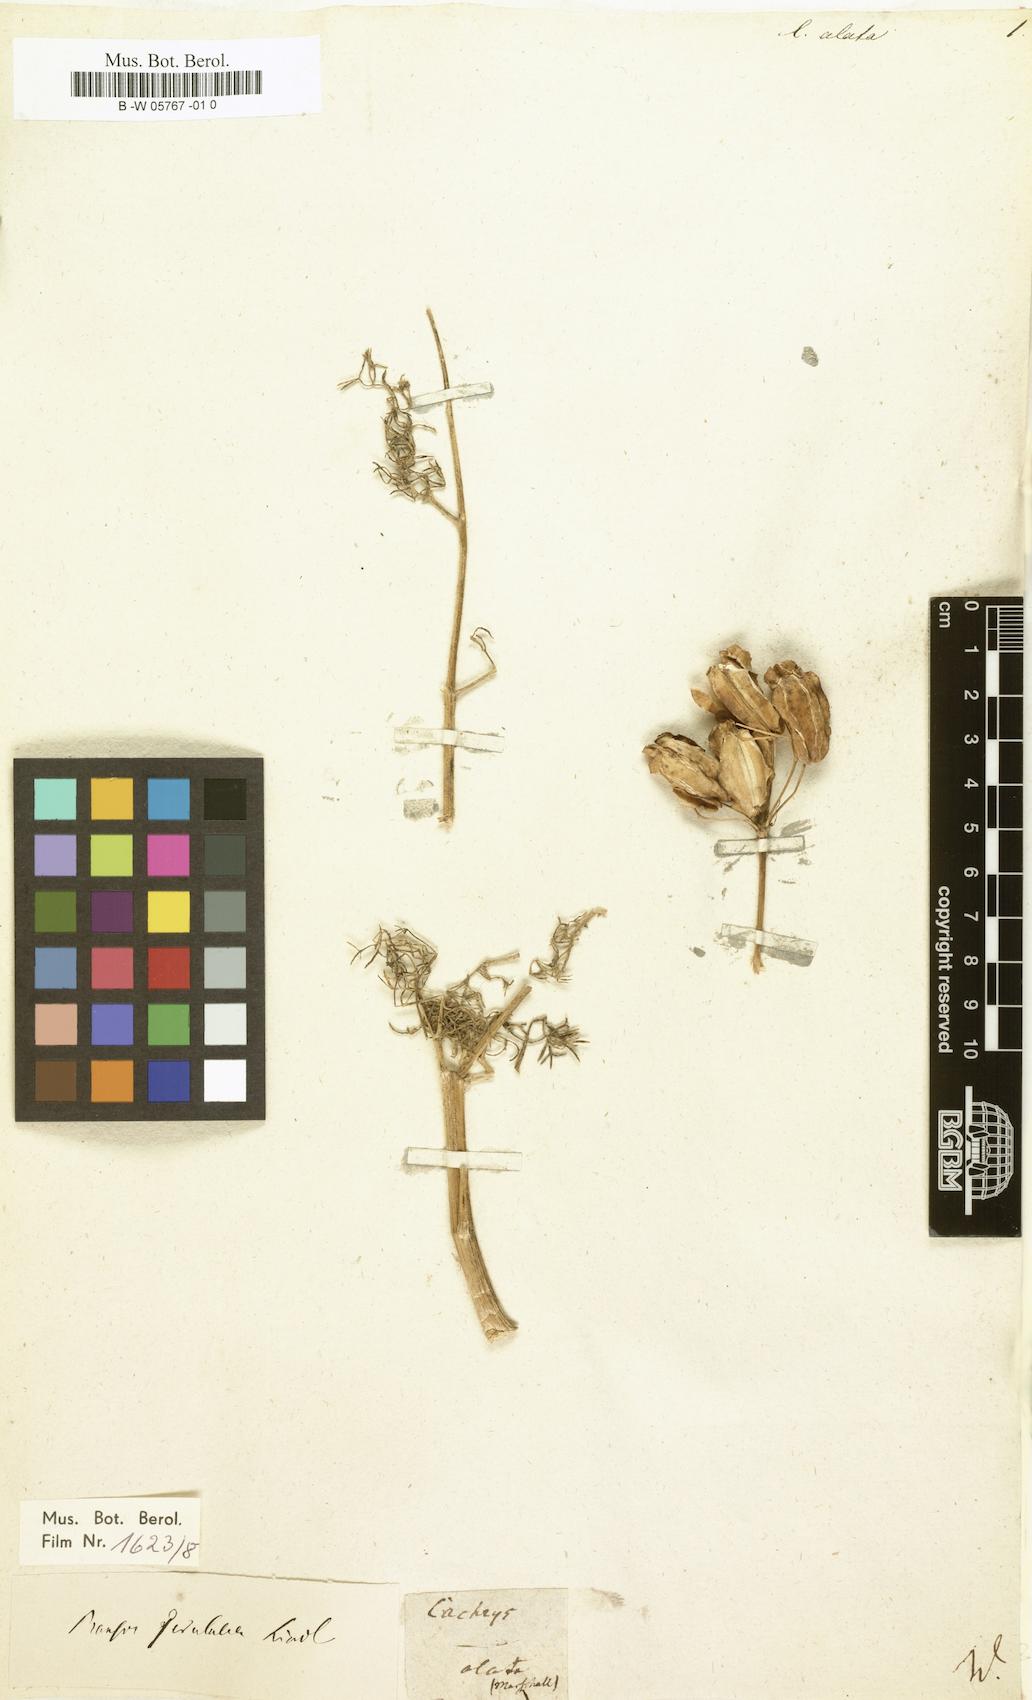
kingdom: Plantae
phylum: Tracheophyta
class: Magnoliopsida
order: Apiales
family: Apiaceae
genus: Prangos
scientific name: Prangos ferulacea
